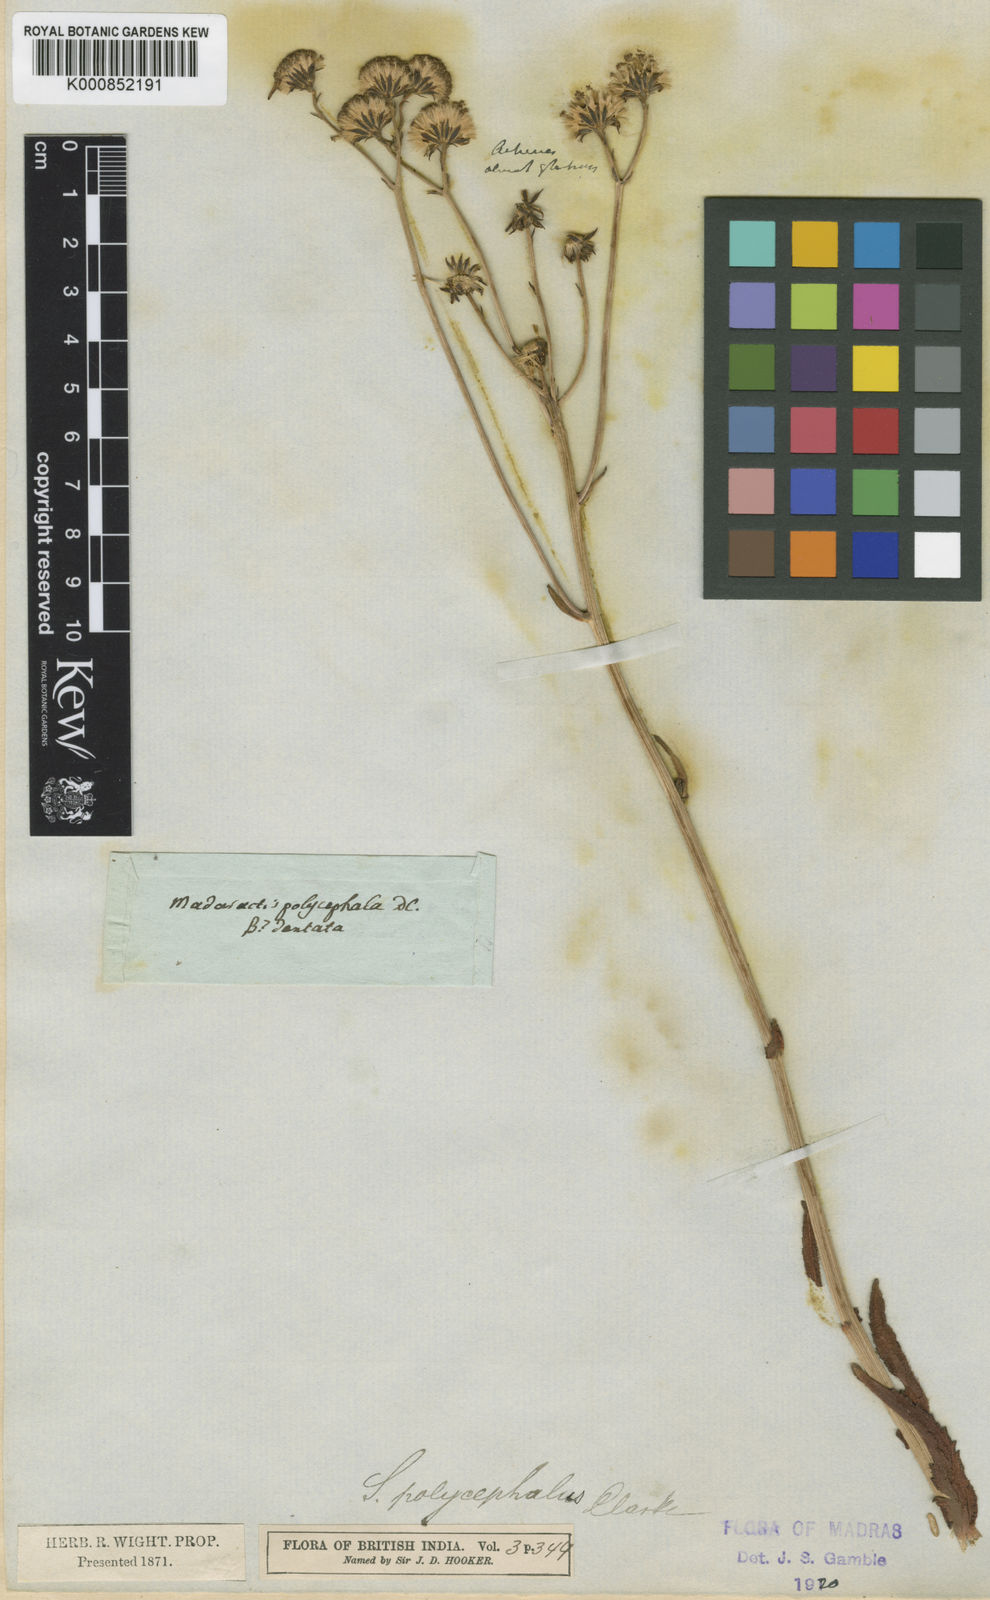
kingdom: Plantae
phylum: Tracheophyta
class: Magnoliopsida
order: Asterales
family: Asteraceae
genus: Senecio
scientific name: Senecio multiceps
